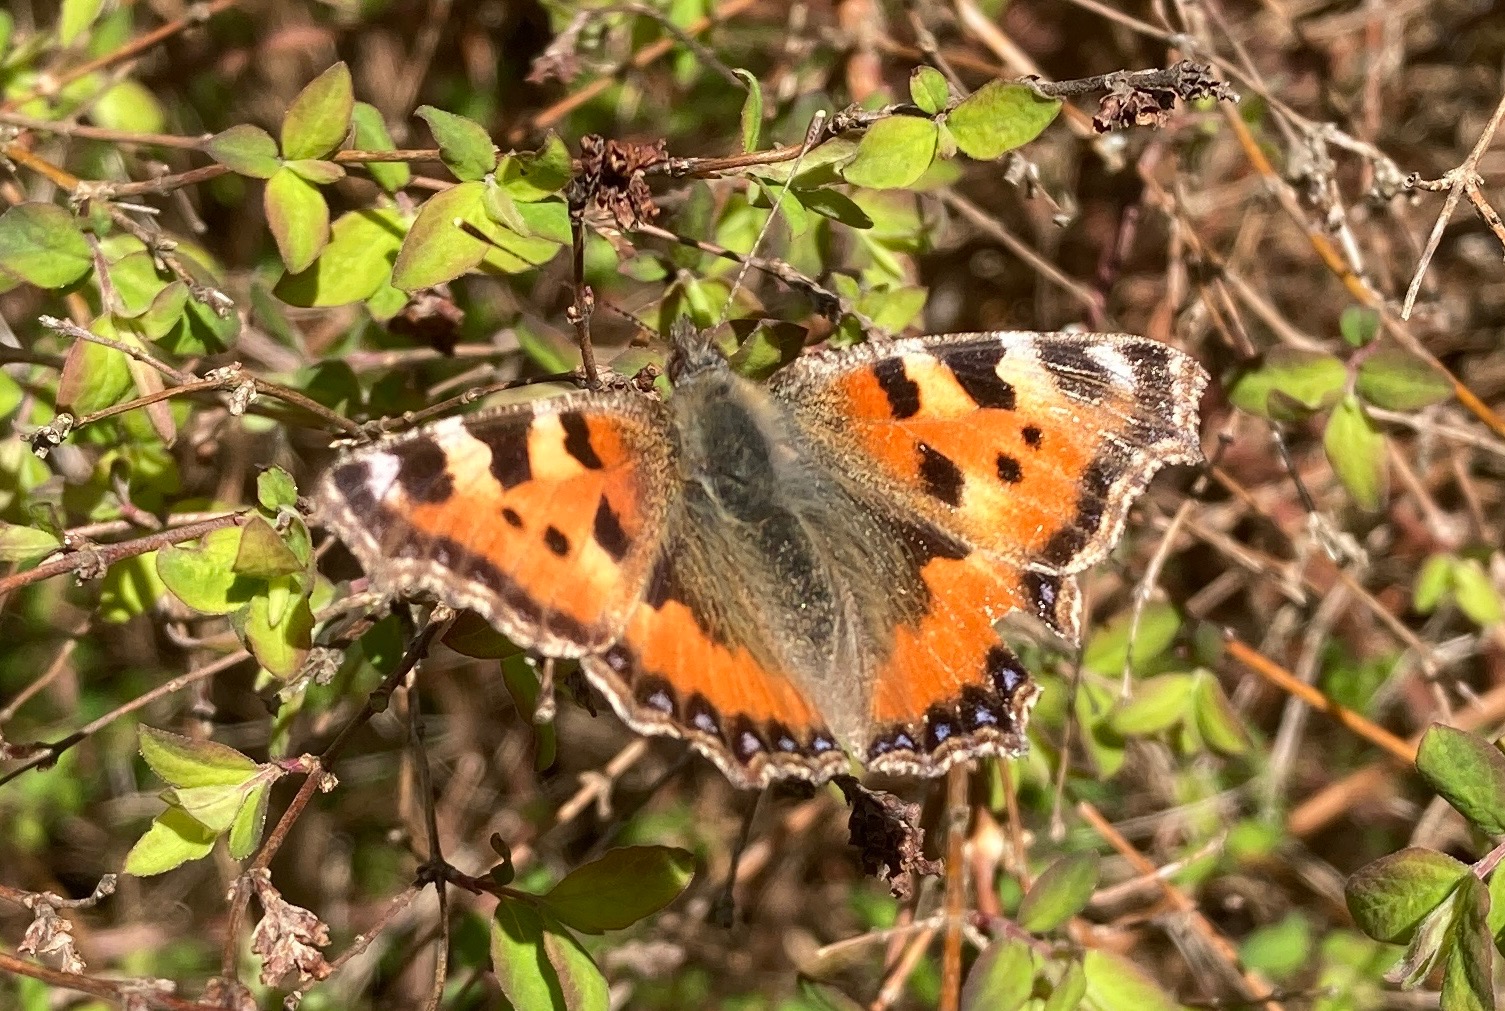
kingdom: Animalia
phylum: Arthropoda
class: Insecta
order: Lepidoptera
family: Nymphalidae
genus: Aglais
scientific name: Aglais urticae
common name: Nældens takvinge
